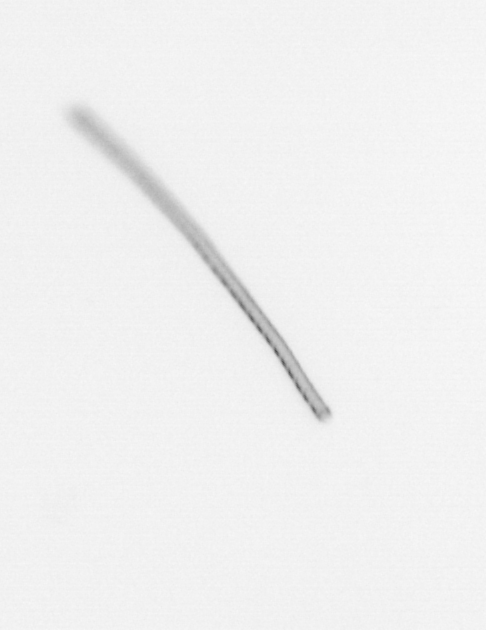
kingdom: Chromista
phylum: Ochrophyta
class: Bacillariophyceae
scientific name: Bacillariophyceae
